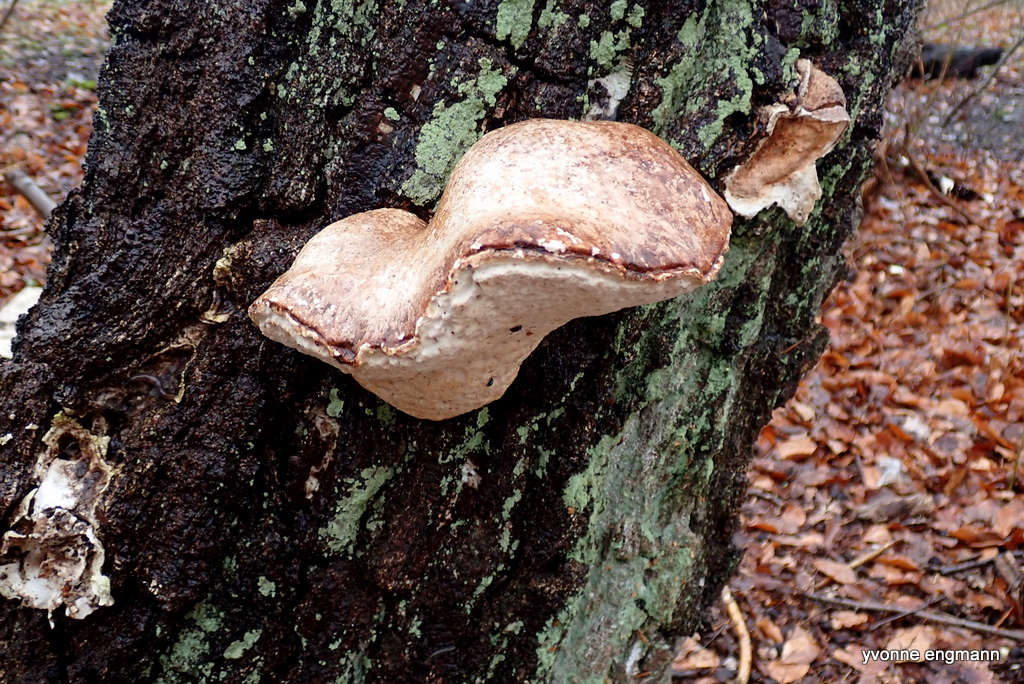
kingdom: Fungi
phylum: Basidiomycota
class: Agaricomycetes
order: Polyporales
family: Fomitopsidaceae
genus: Fomitopsis
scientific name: Fomitopsis betulina
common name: birkeporesvamp
